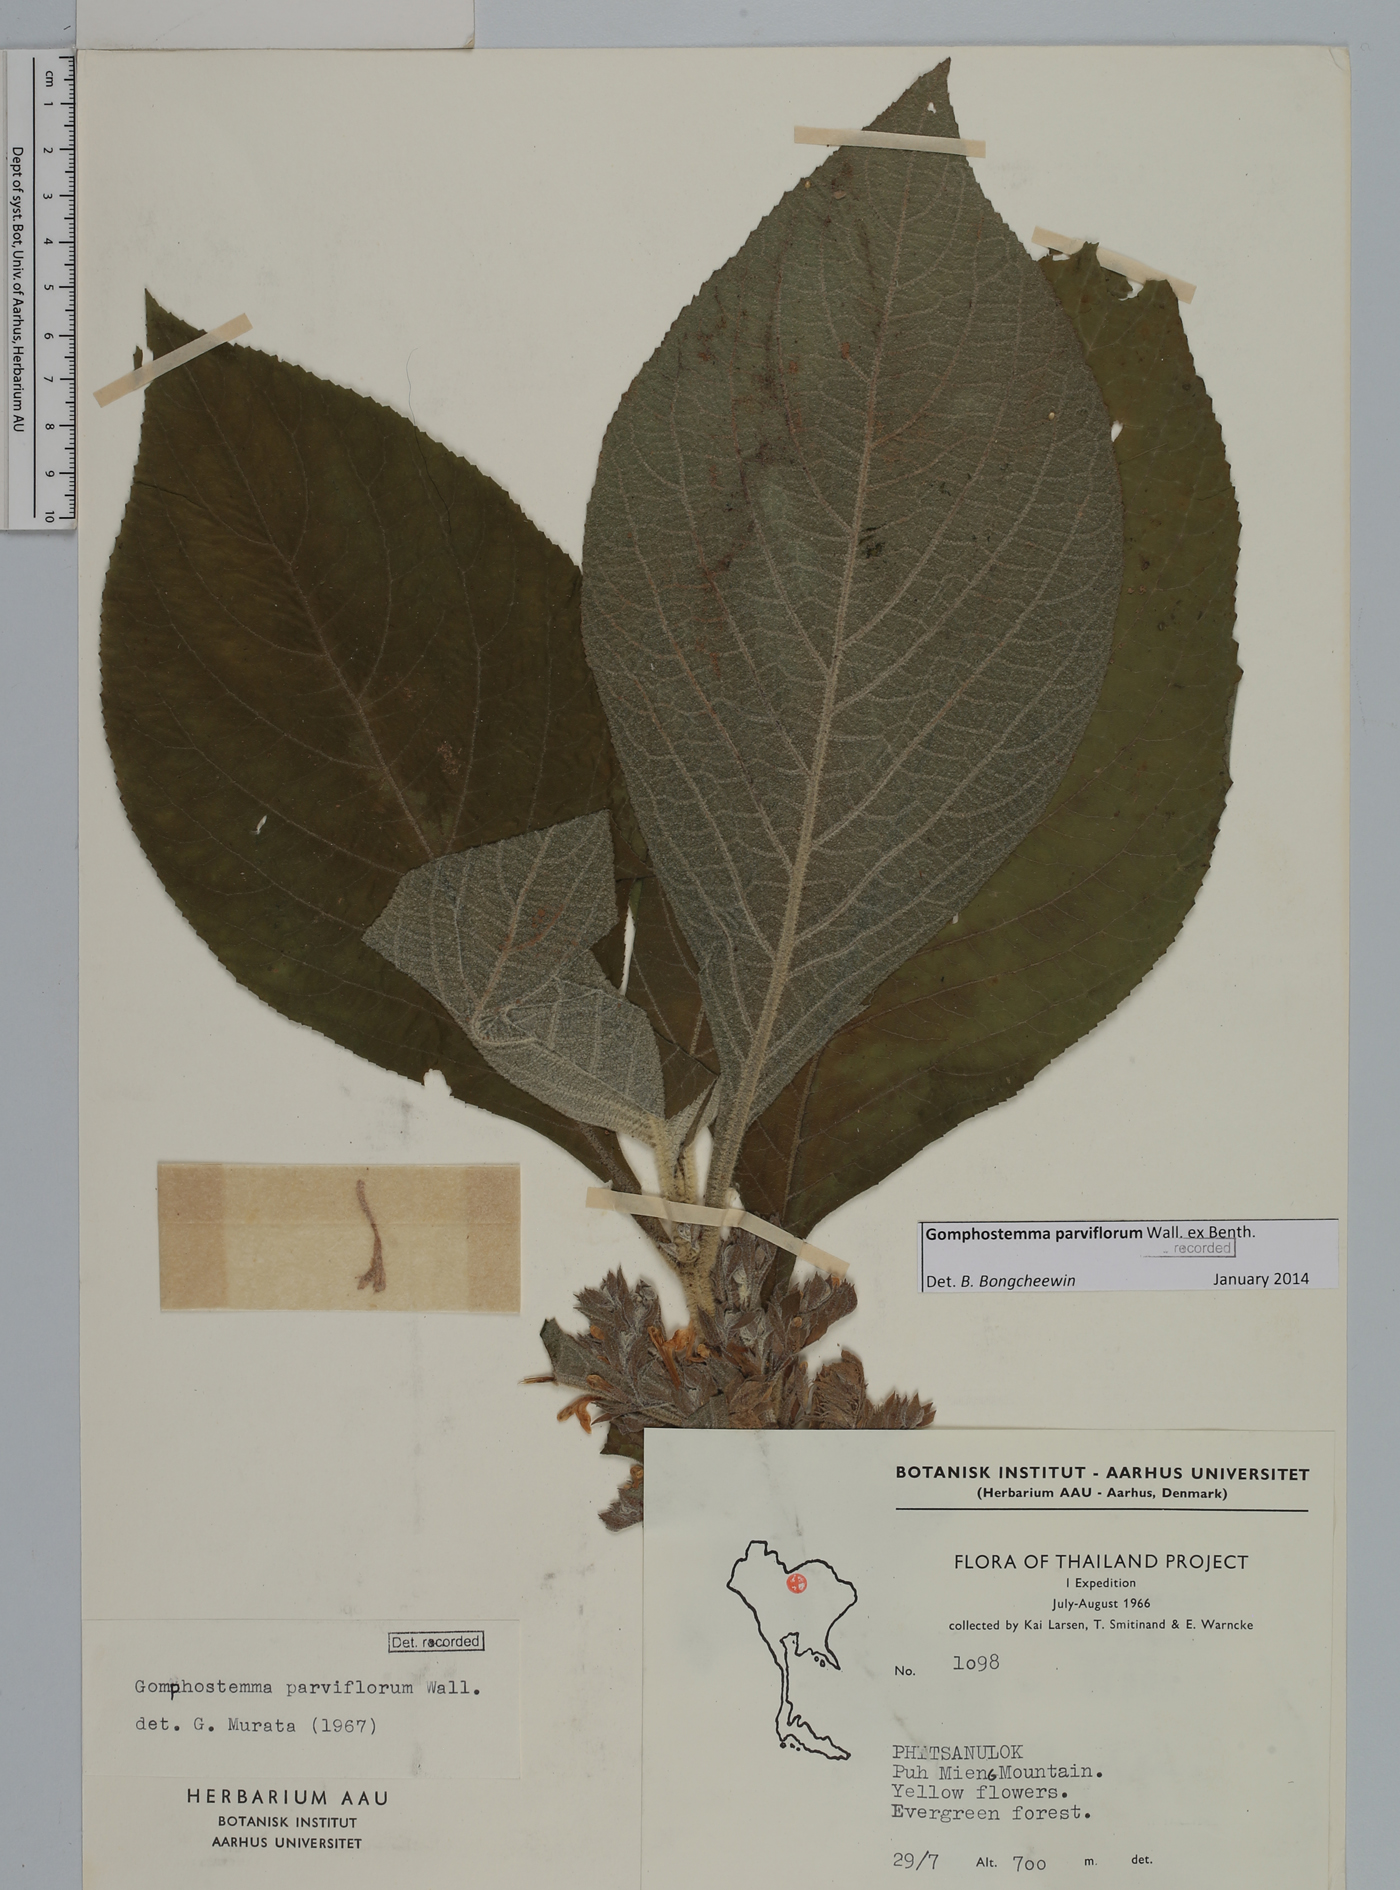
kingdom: Plantae
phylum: Tracheophyta
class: Magnoliopsida
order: Lamiales
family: Lamiaceae
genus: Gomphostemma
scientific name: Gomphostemma parviflorum
